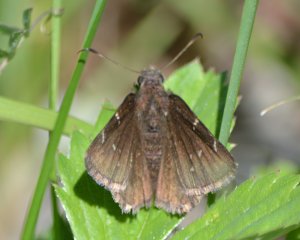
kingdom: Animalia
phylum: Arthropoda
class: Insecta
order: Lepidoptera
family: Hesperiidae
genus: Autochton
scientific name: Autochton
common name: Northern Cloudywing
